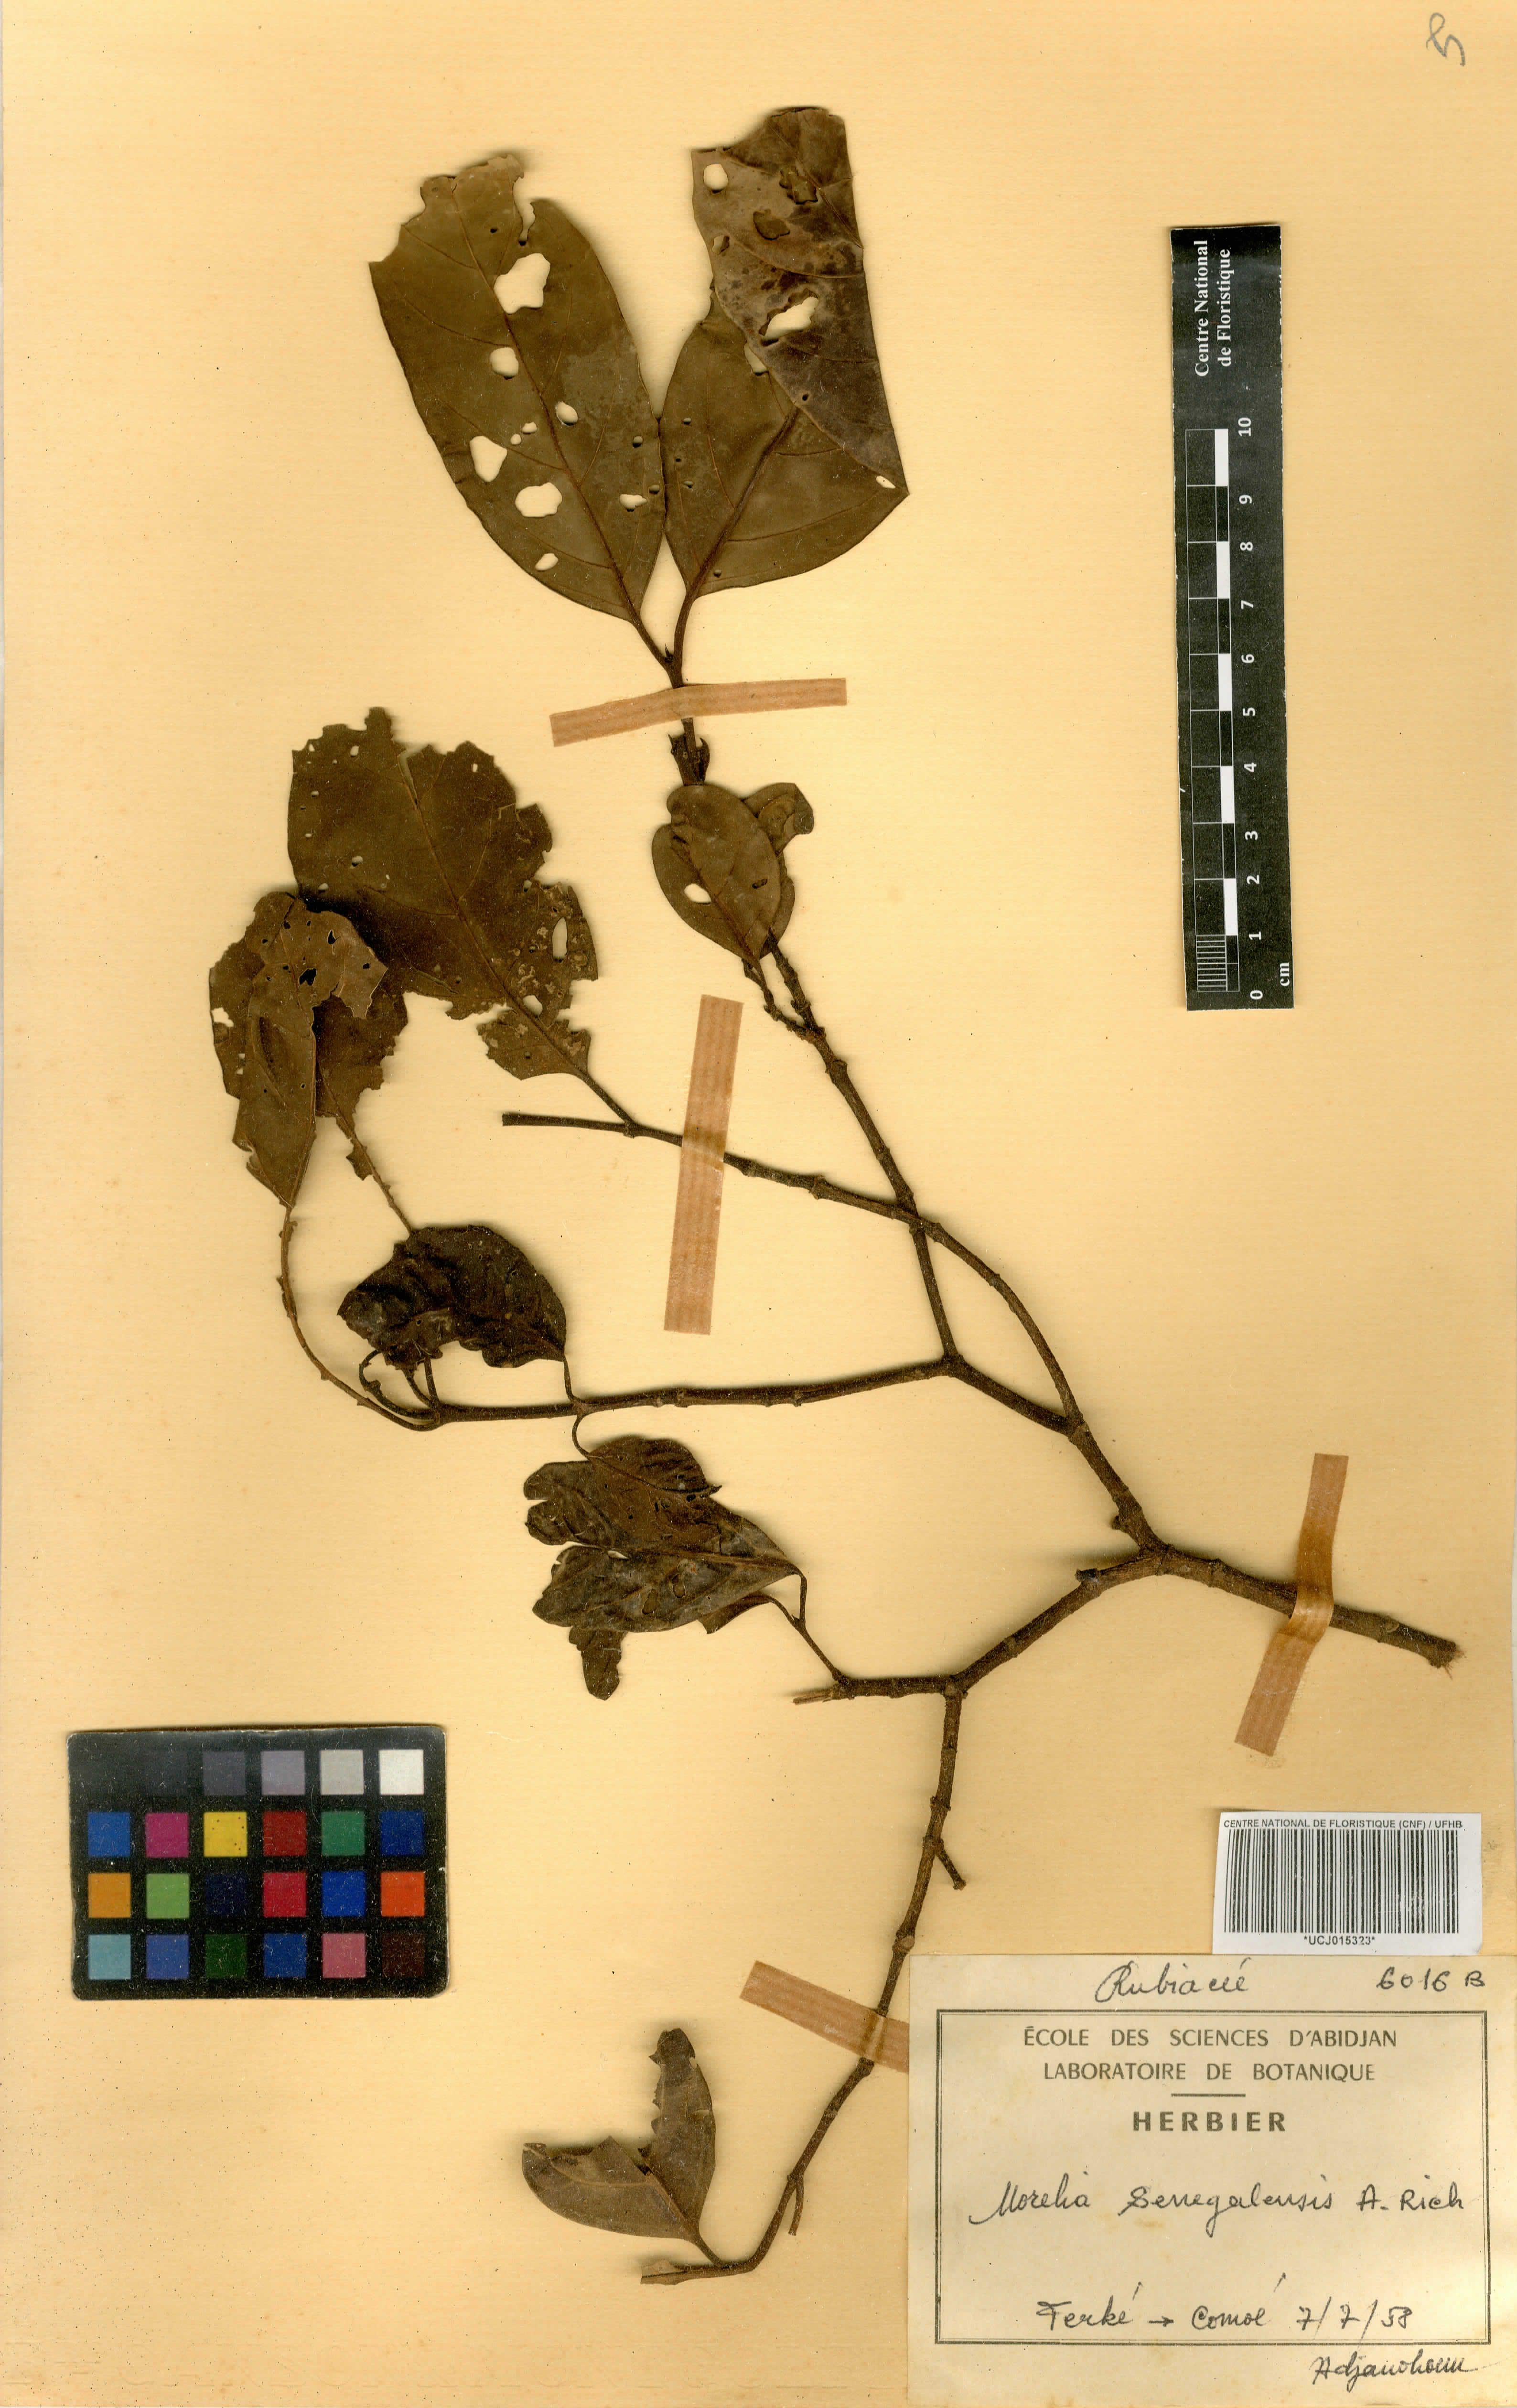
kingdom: Plantae
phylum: Tracheophyta
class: Magnoliopsida
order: Gentianales
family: Rubiaceae
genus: Morelia
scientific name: Morelia senegalensis
